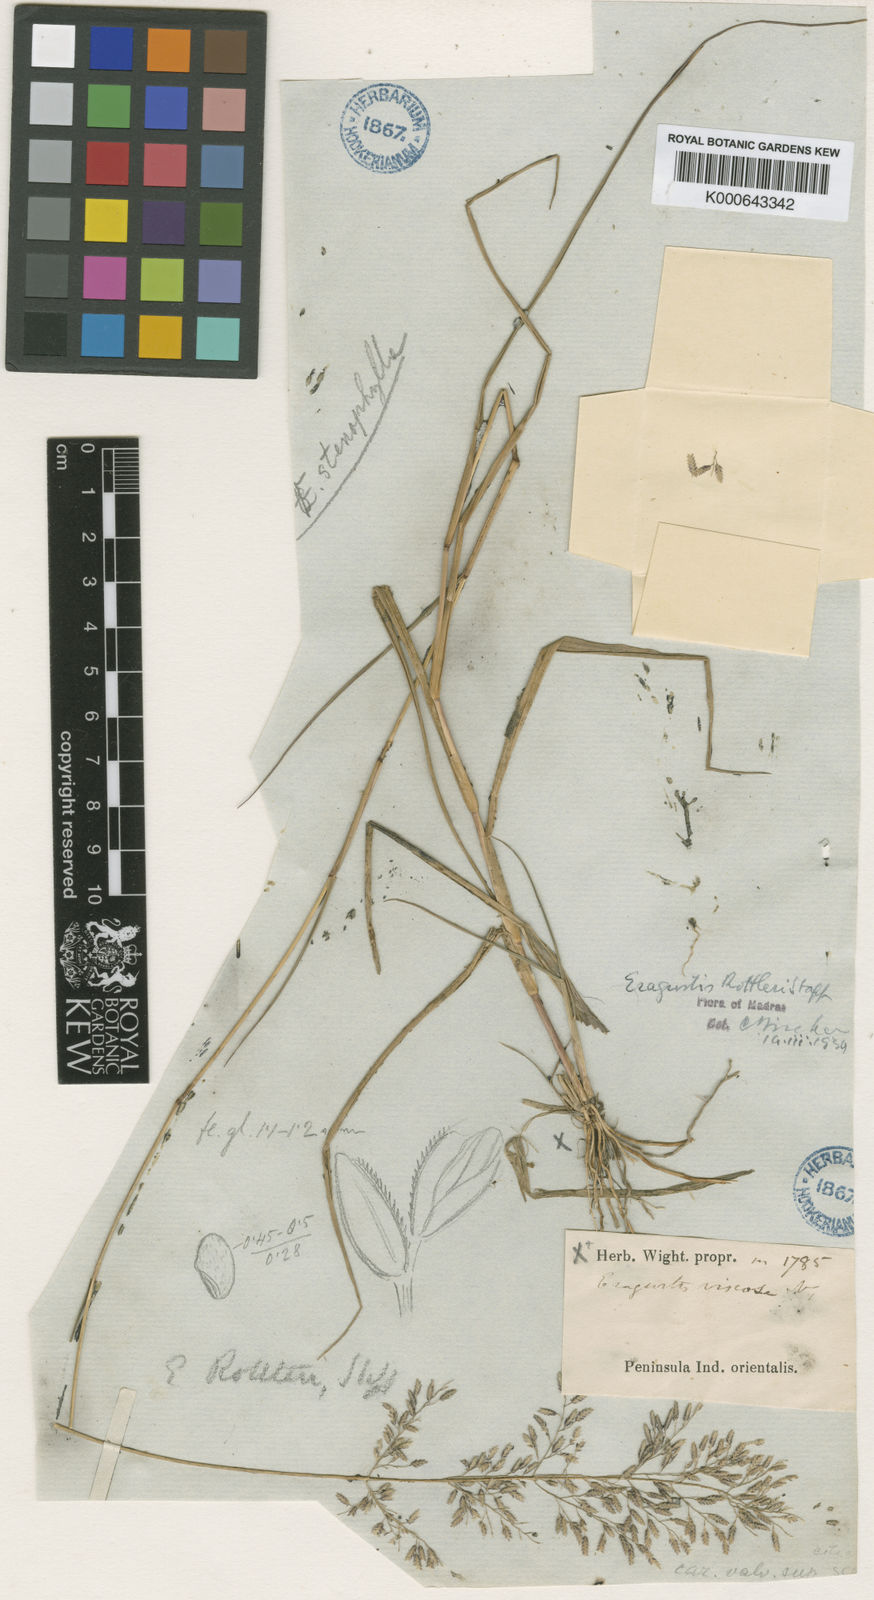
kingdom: Plantae
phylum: Tracheophyta
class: Liliopsida
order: Poales
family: Poaceae
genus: Eragrostis
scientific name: Eragrostis rottleri
